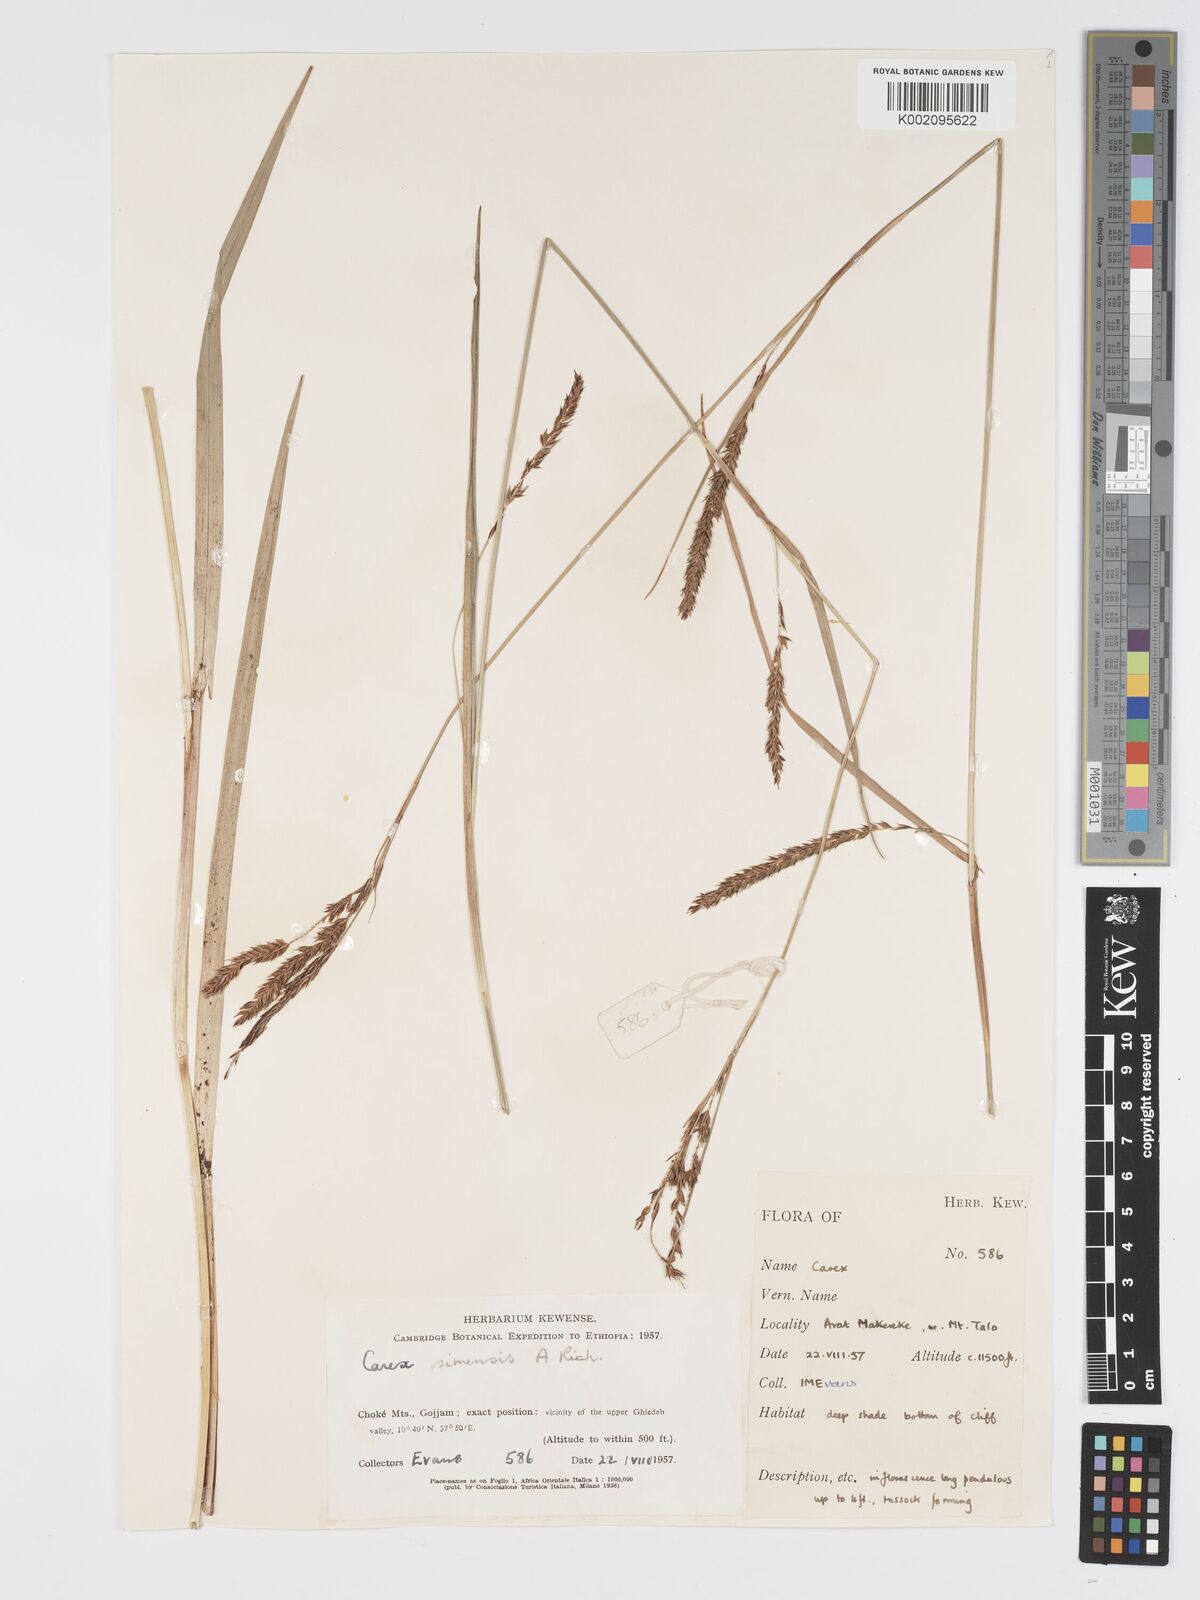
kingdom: Plantae
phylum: Tracheophyta
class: Liliopsida
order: Poales
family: Cyperaceae
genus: Carex
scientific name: Carex simensis
